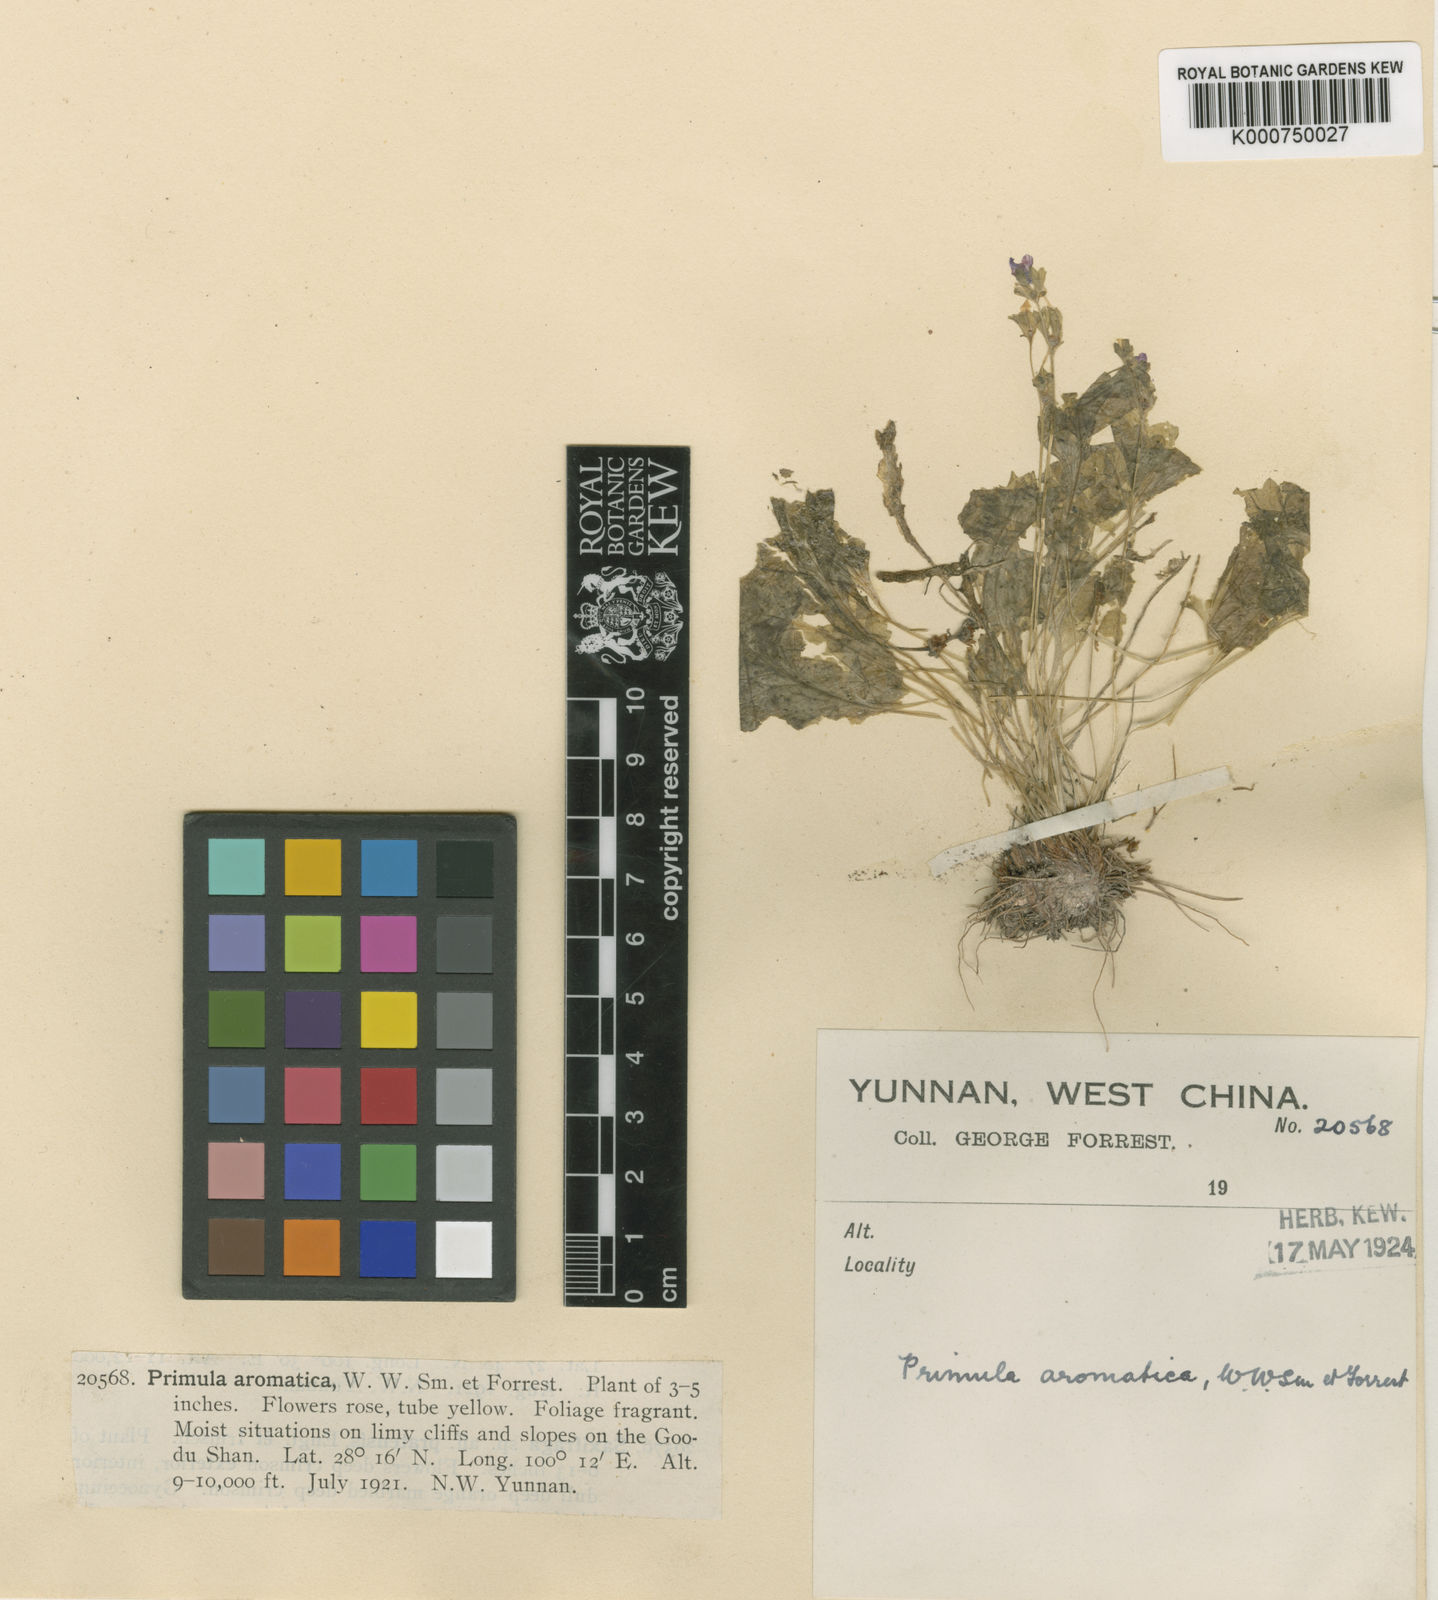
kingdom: Plantae
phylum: Tracheophyta
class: Magnoliopsida
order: Ericales
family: Primulaceae
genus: Primula
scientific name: Primula aromatica
